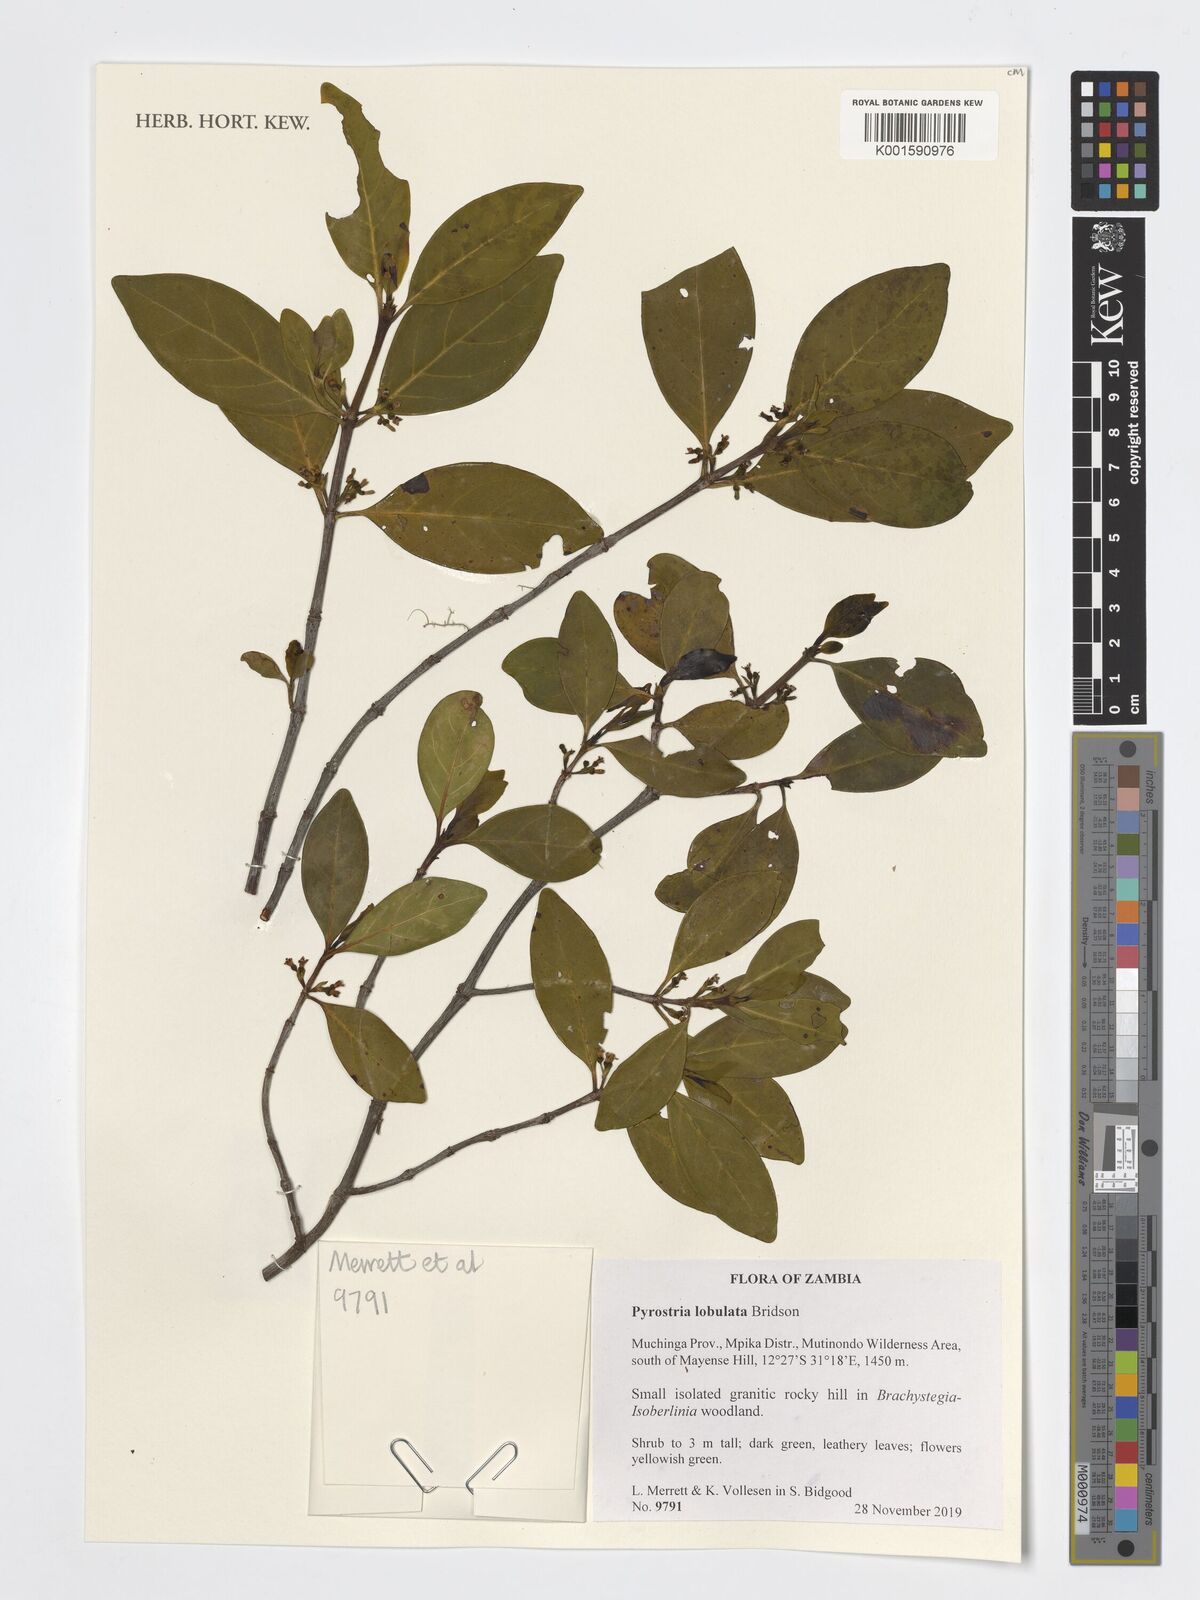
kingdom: Plantae
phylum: Tracheophyta
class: Magnoliopsida
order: Gentianales
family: Rubiaceae
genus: Pyrostria
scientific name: Pyrostria lobulata
